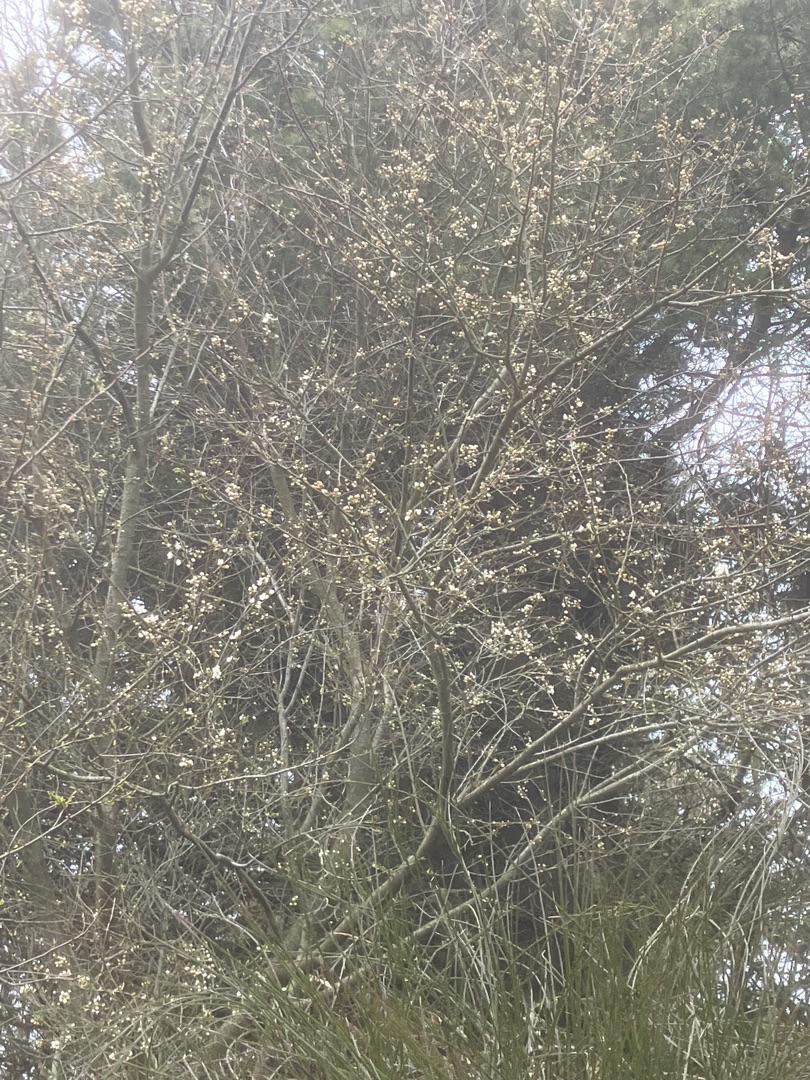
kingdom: Plantae
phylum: Tracheophyta
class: Magnoliopsida
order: Rosales
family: Rosaceae
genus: Prunus
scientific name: Prunus cerasifera
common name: Mirabel
